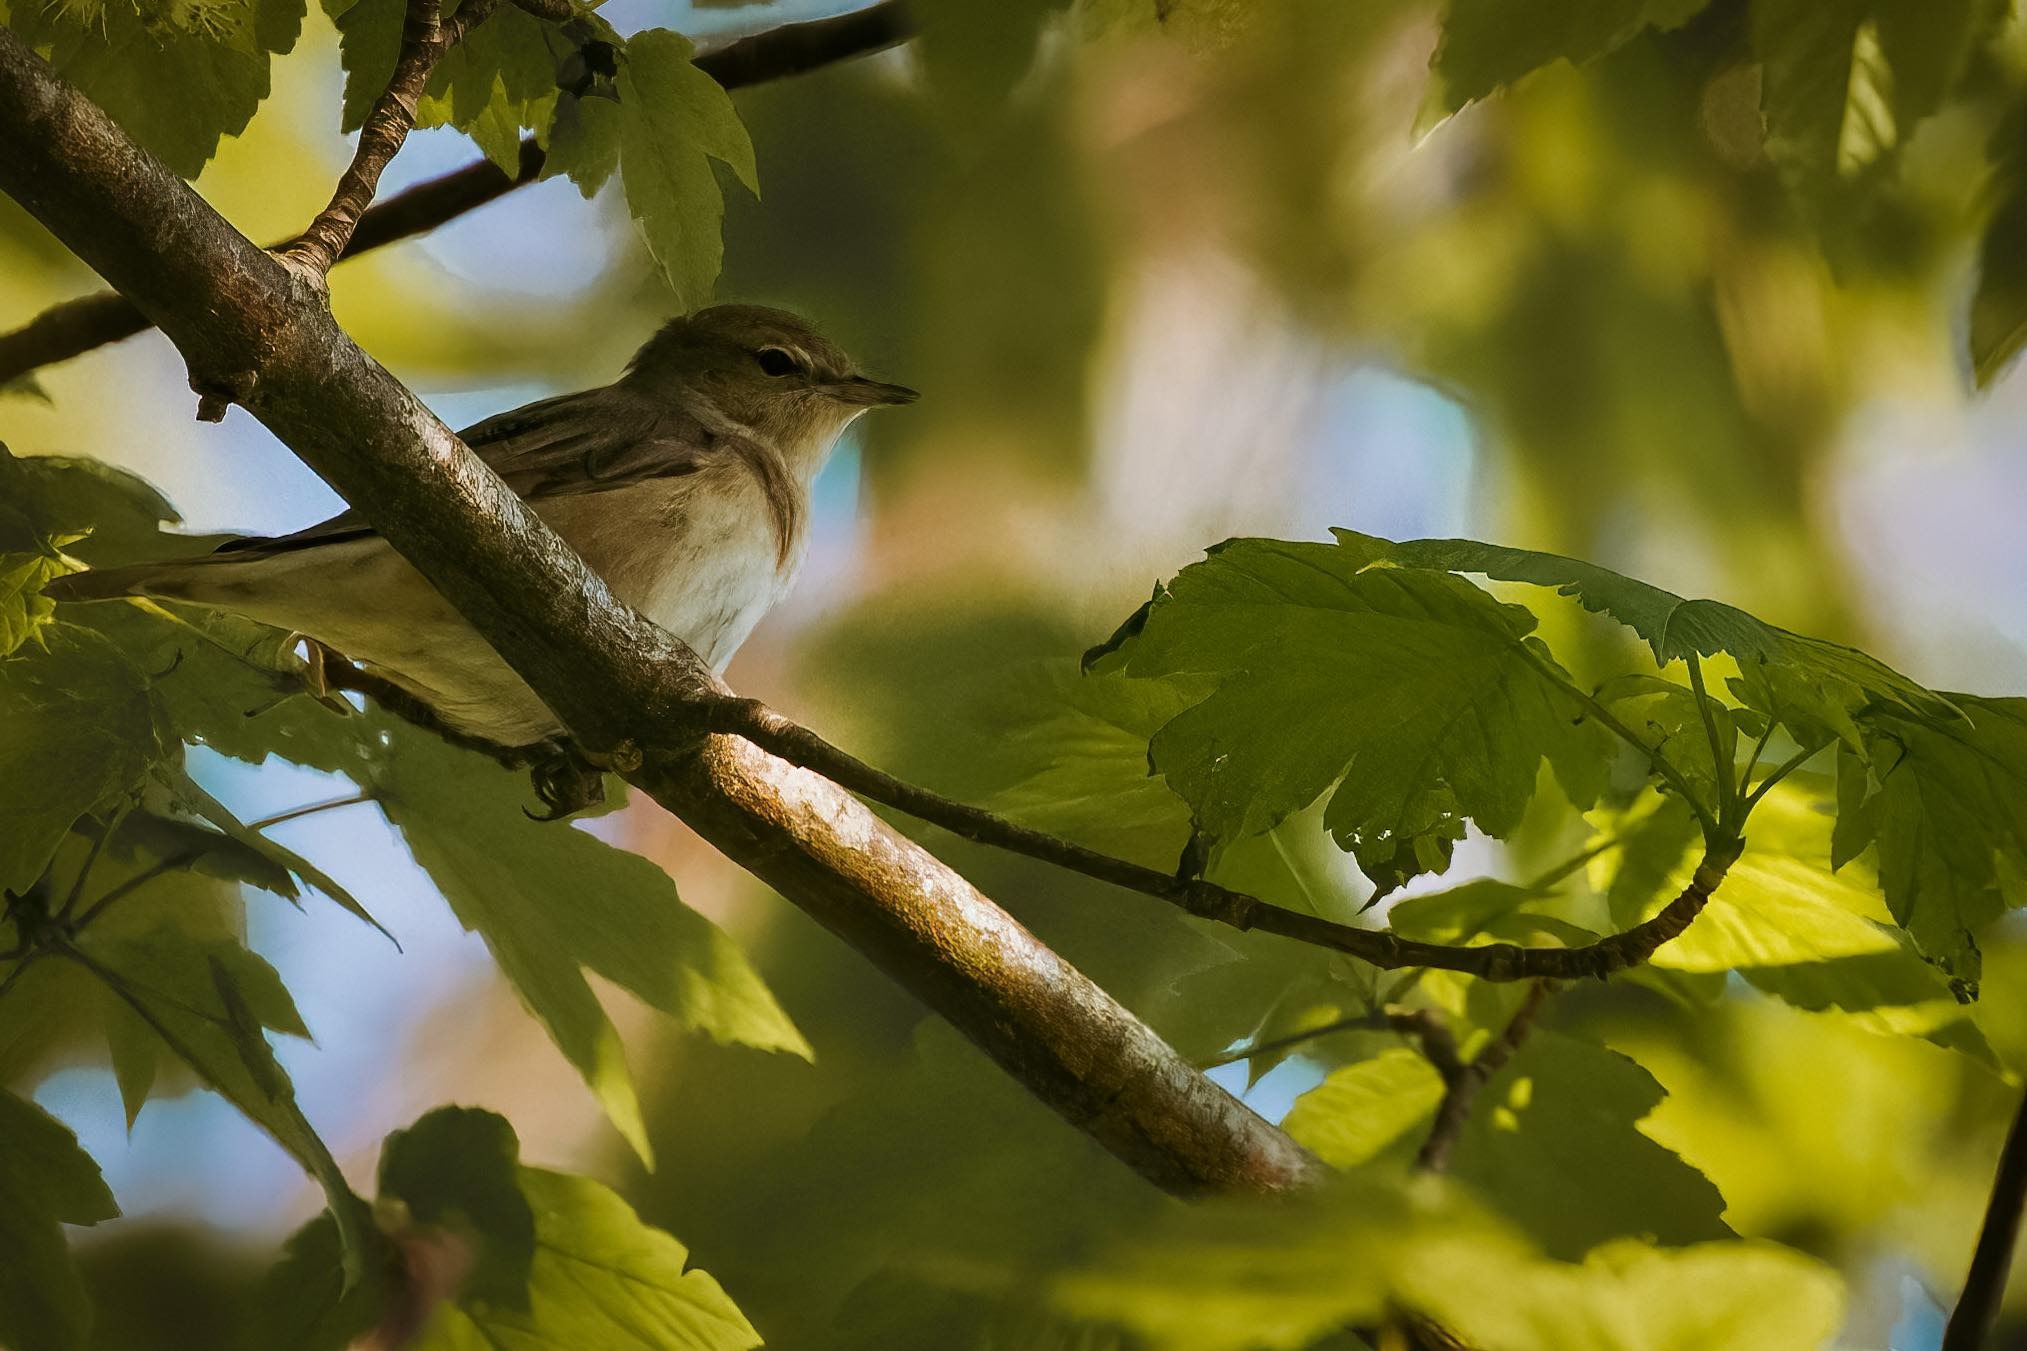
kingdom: Animalia
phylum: Chordata
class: Aves
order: Passeriformes
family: Sylviidae
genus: Sylvia
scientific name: Sylvia borin
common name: Havesanger
